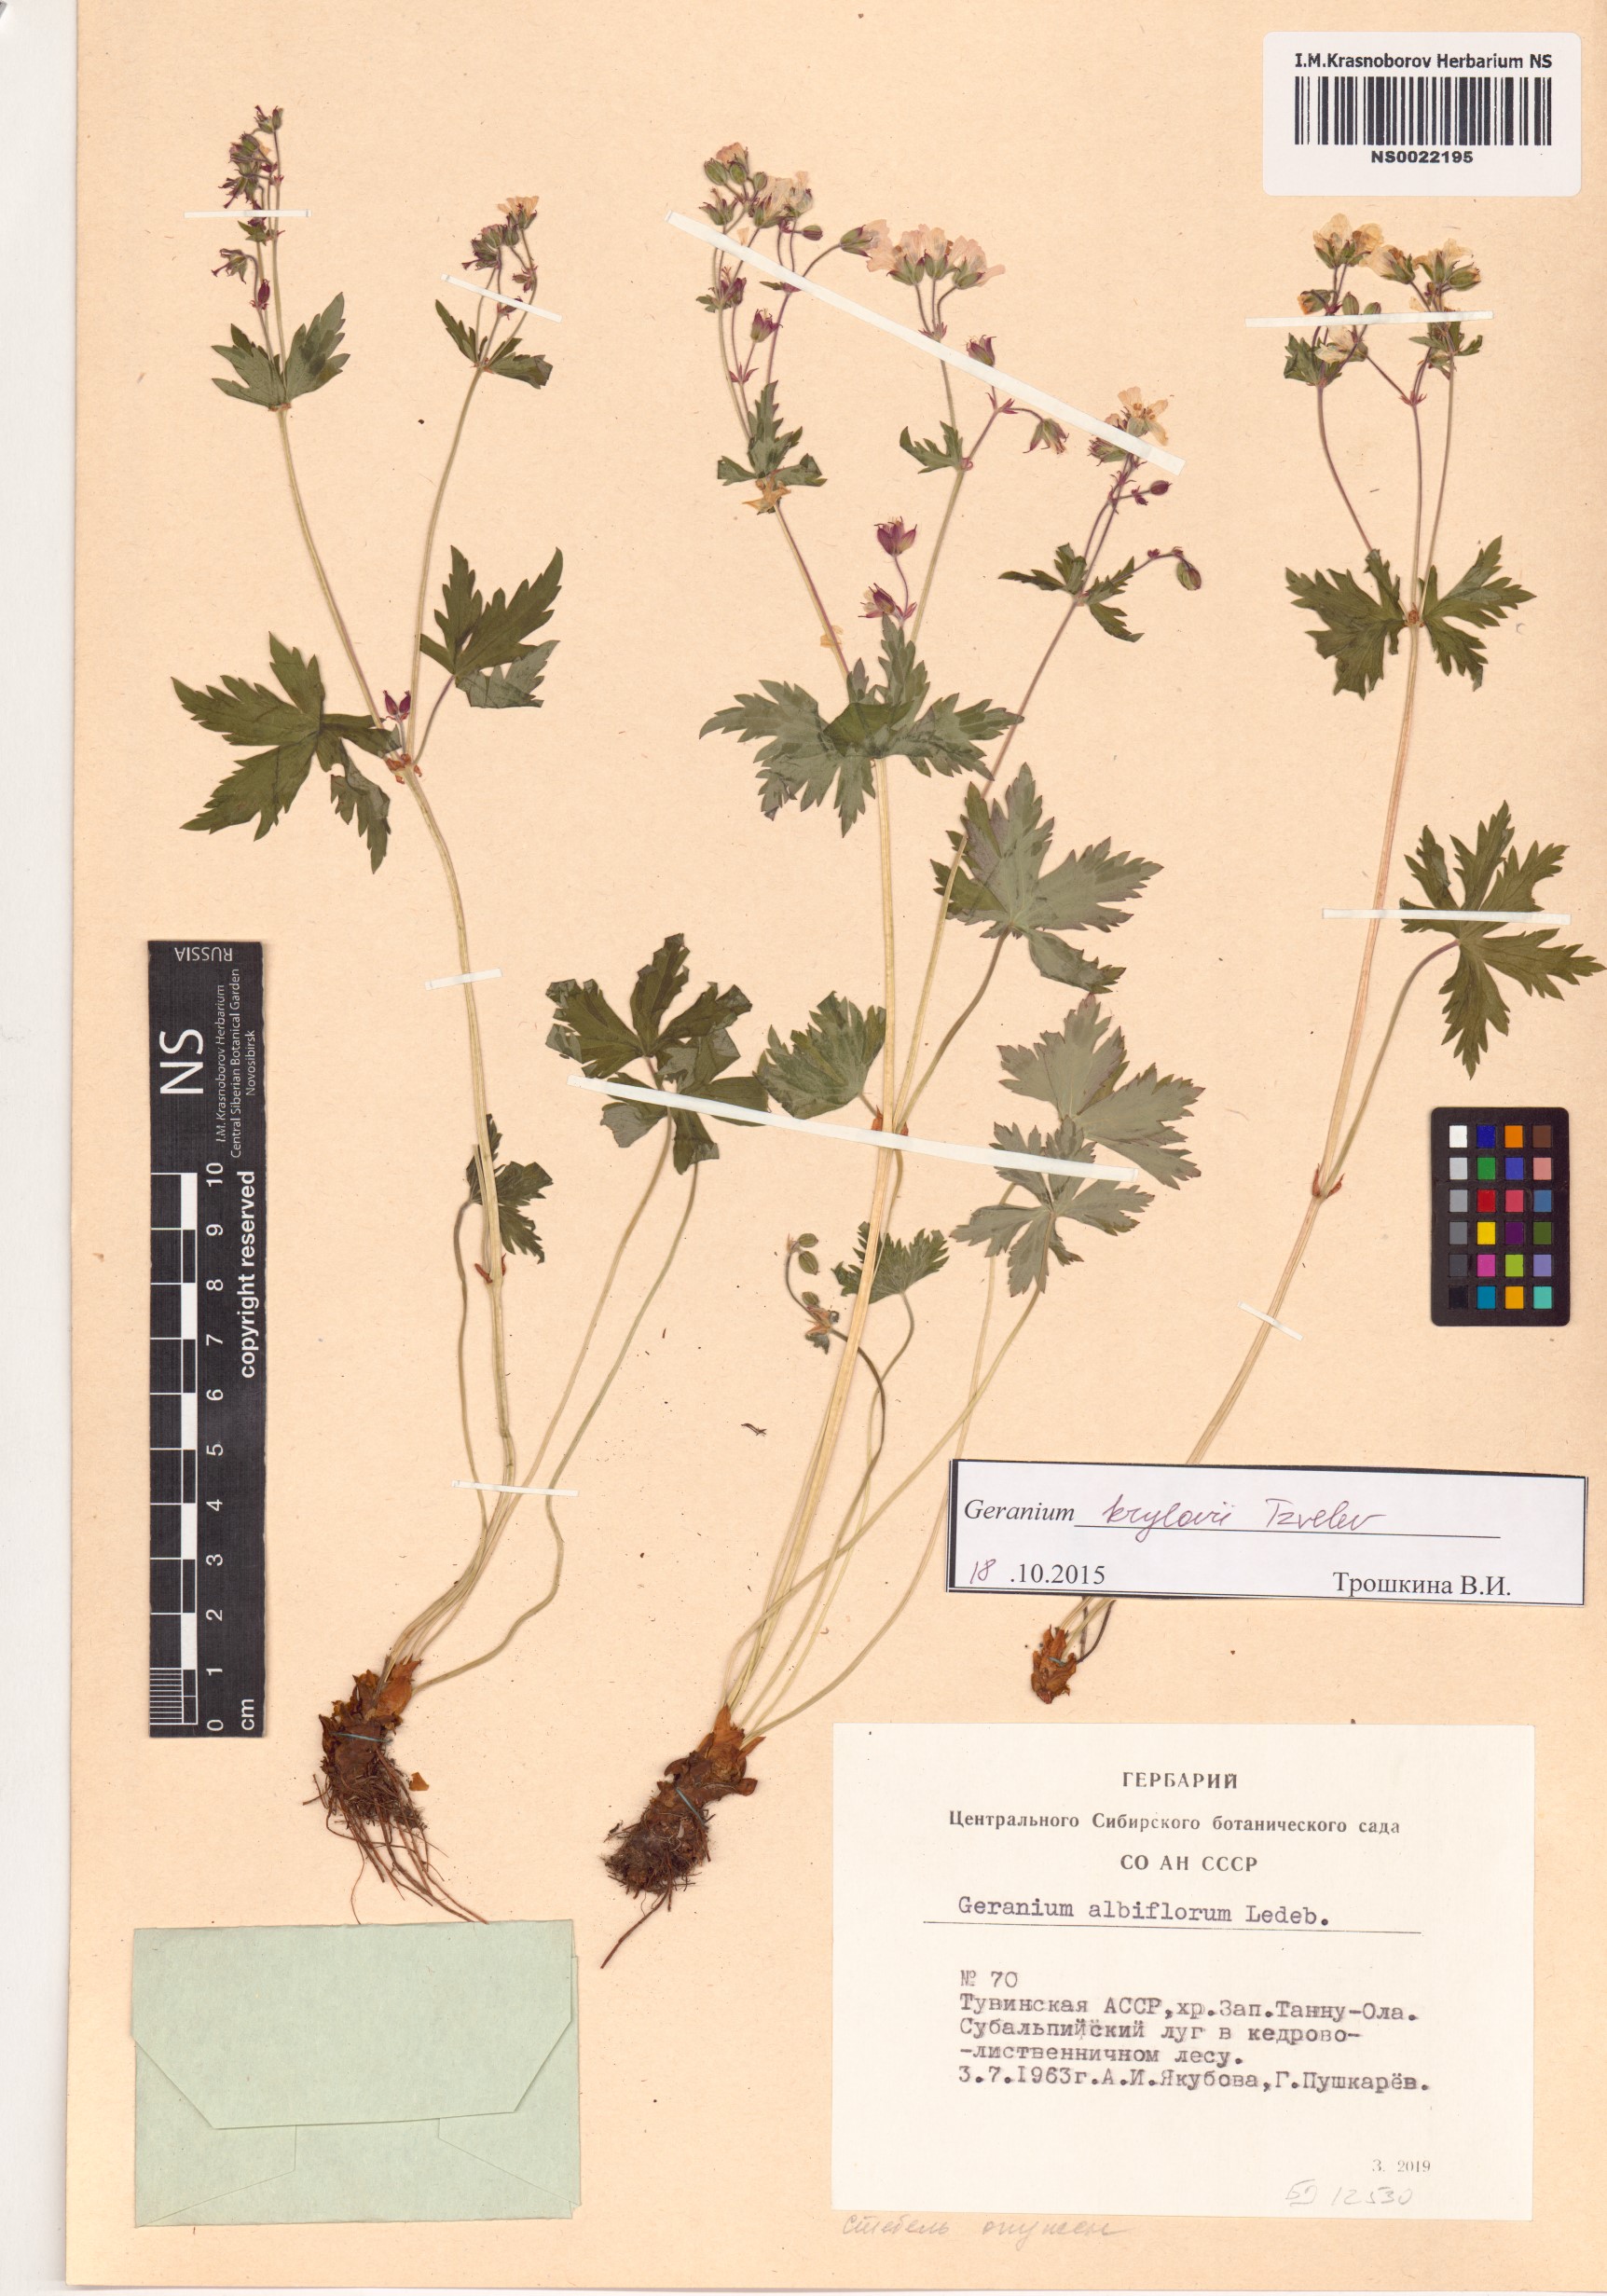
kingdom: Plantae
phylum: Tracheophyta
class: Magnoliopsida
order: Geraniales
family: Geraniaceae
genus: Geranium
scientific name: Geranium sylvaticum
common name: Wood crane's-bill
